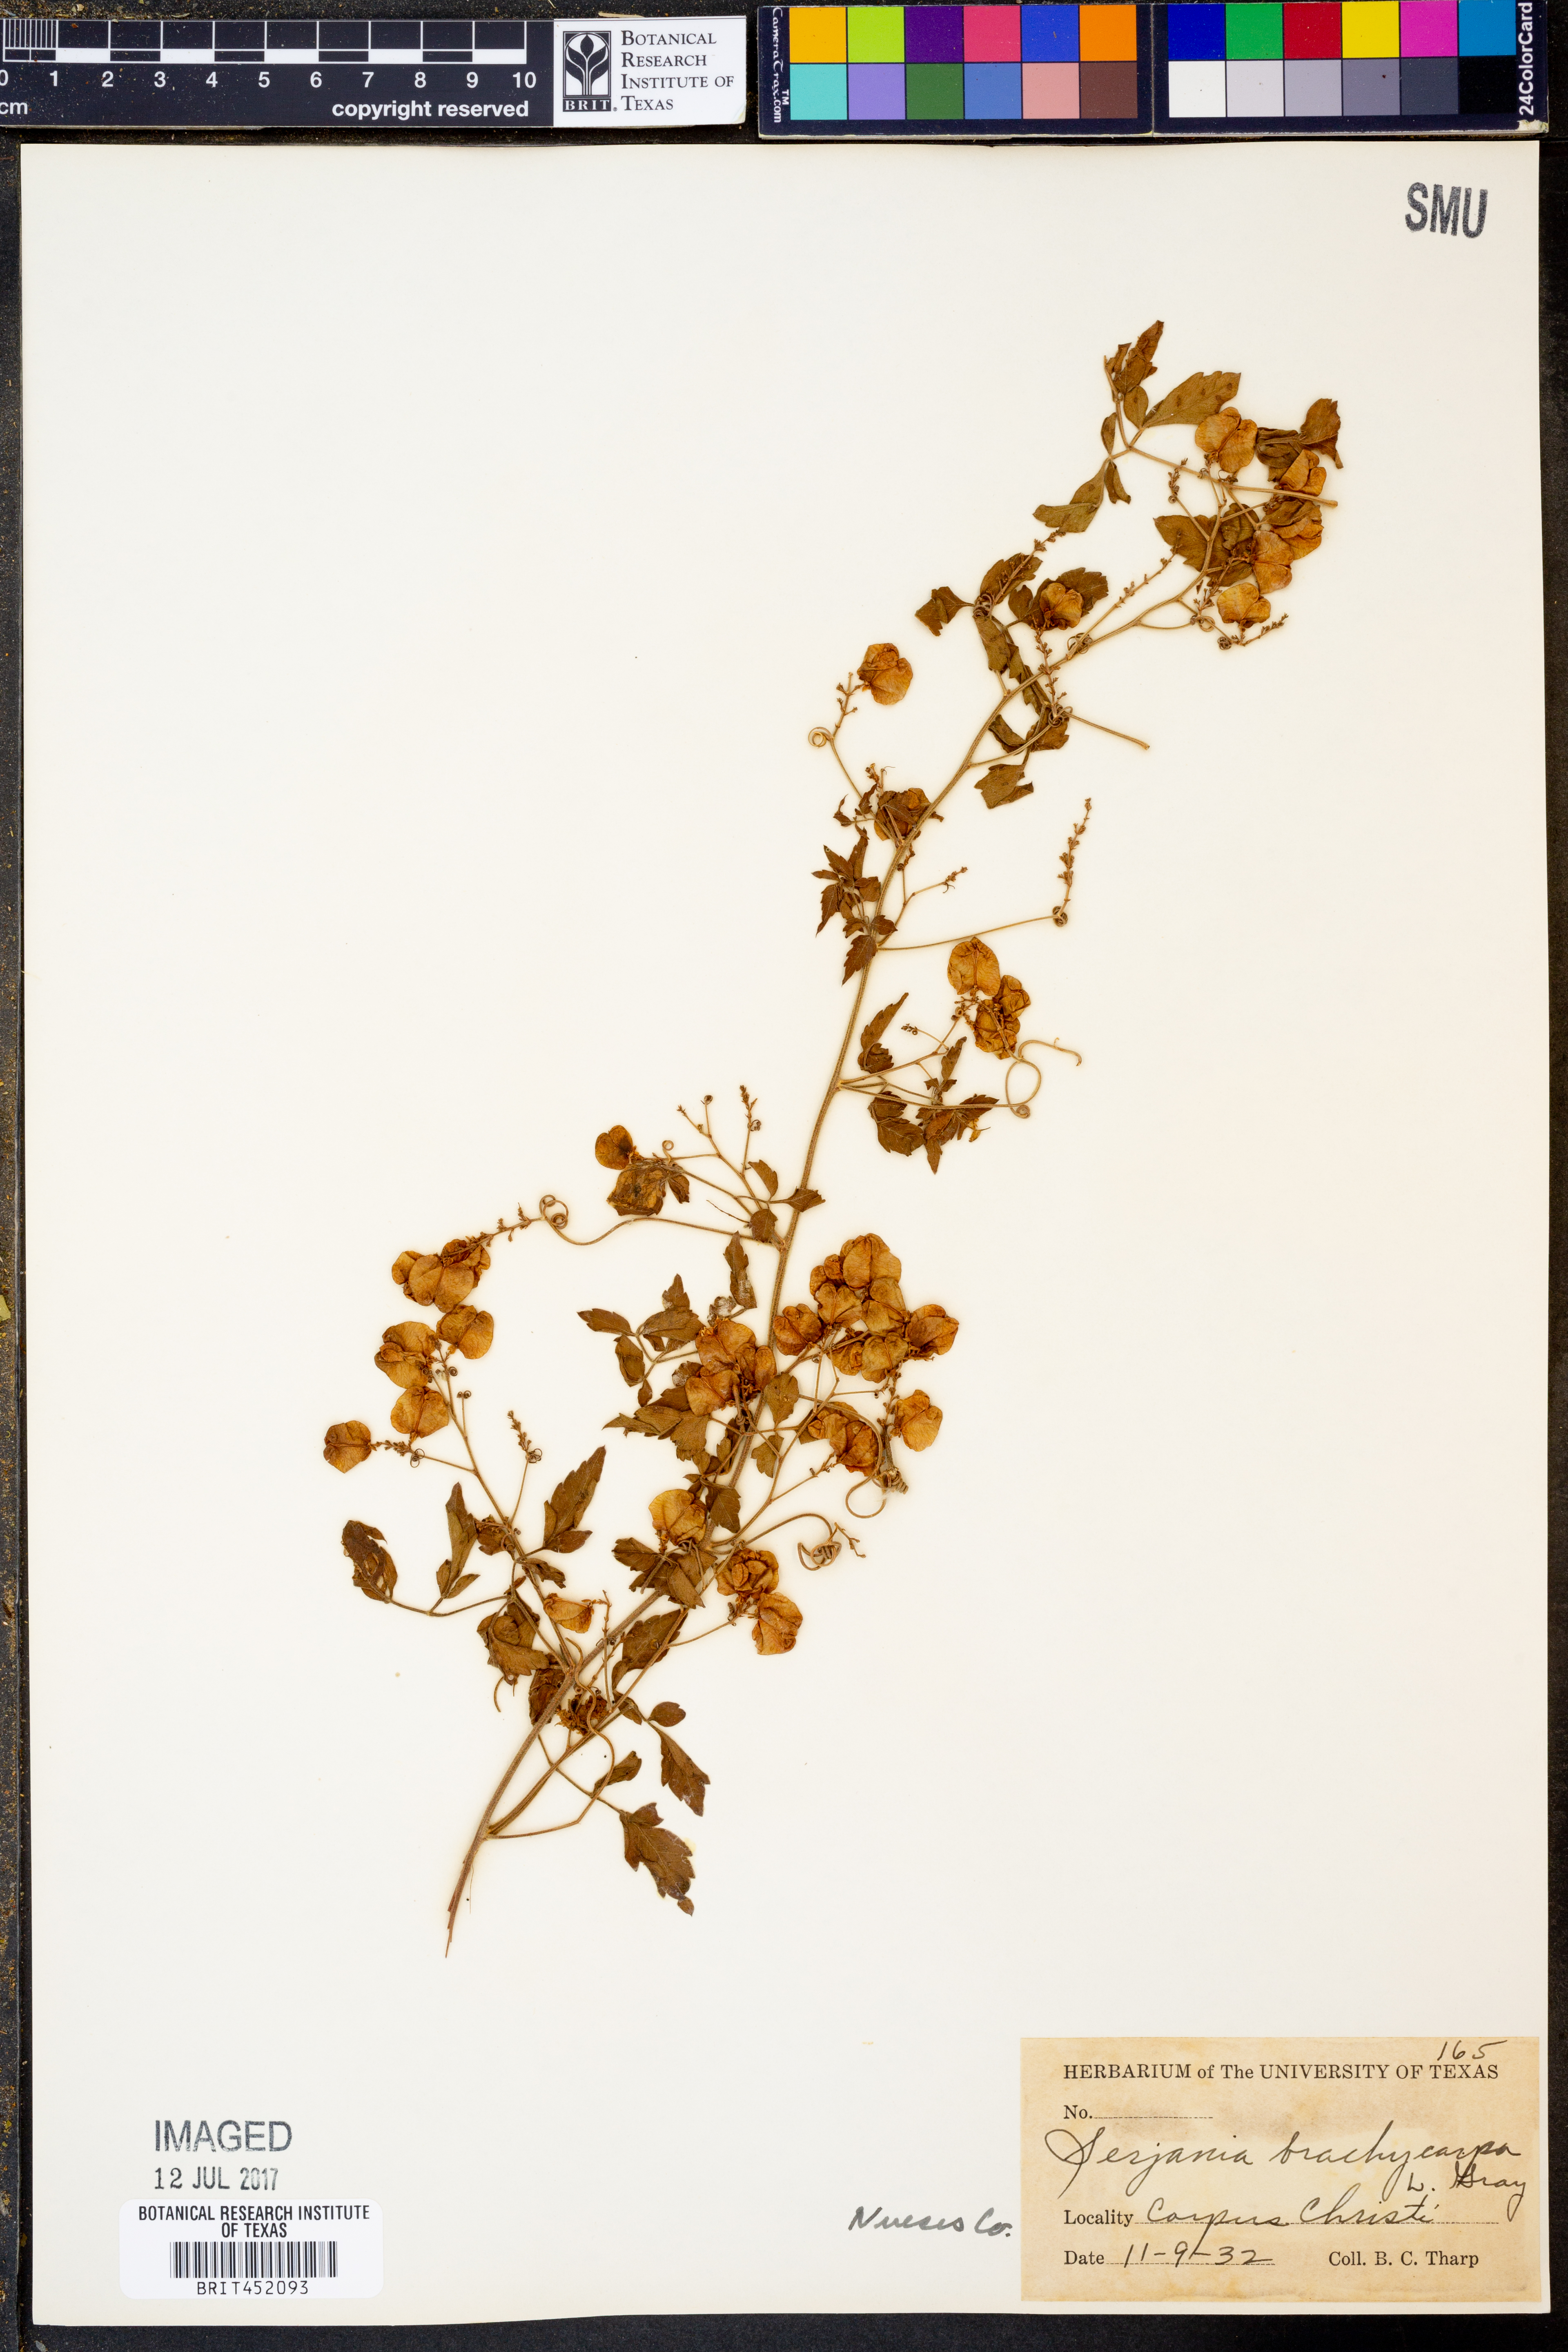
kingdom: Plantae
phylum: Tracheophyta
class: Magnoliopsida
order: Sapindales
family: Sapindaceae
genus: Serjania
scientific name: Serjania brachycarpa
